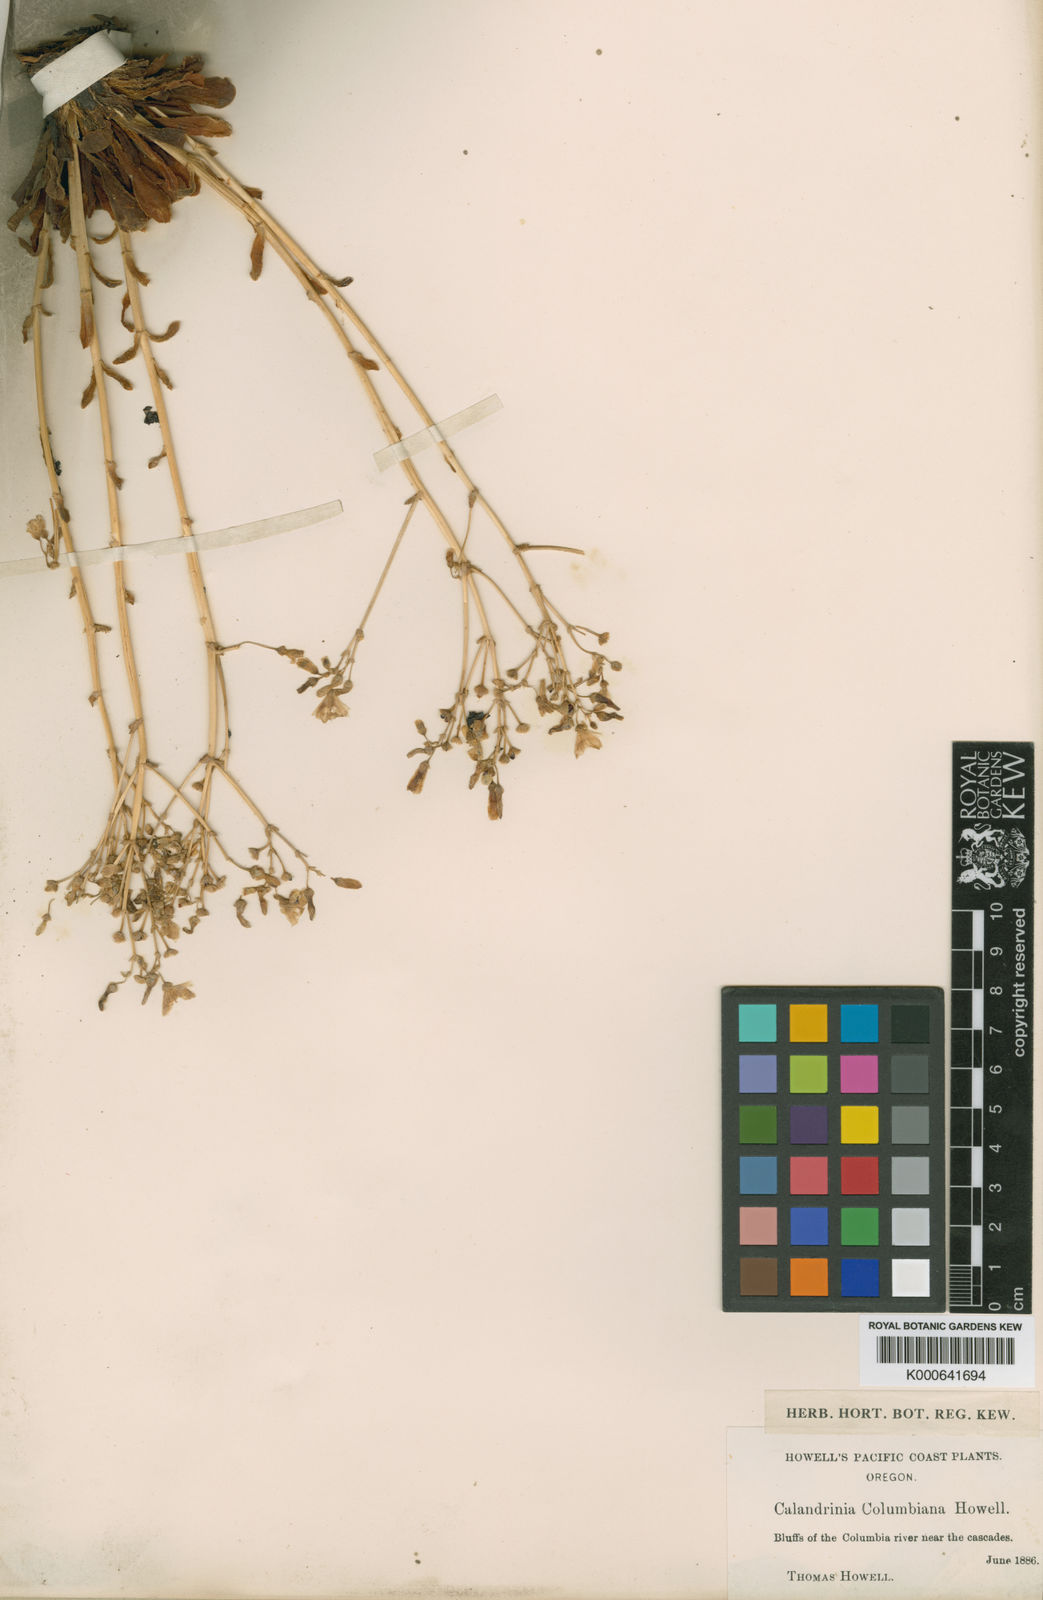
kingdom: Plantae
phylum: Tracheophyta
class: Magnoliopsida
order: Caryophyllales
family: Montiaceae
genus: Lewisia
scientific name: Lewisia columbiana
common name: Columbia lewisia
